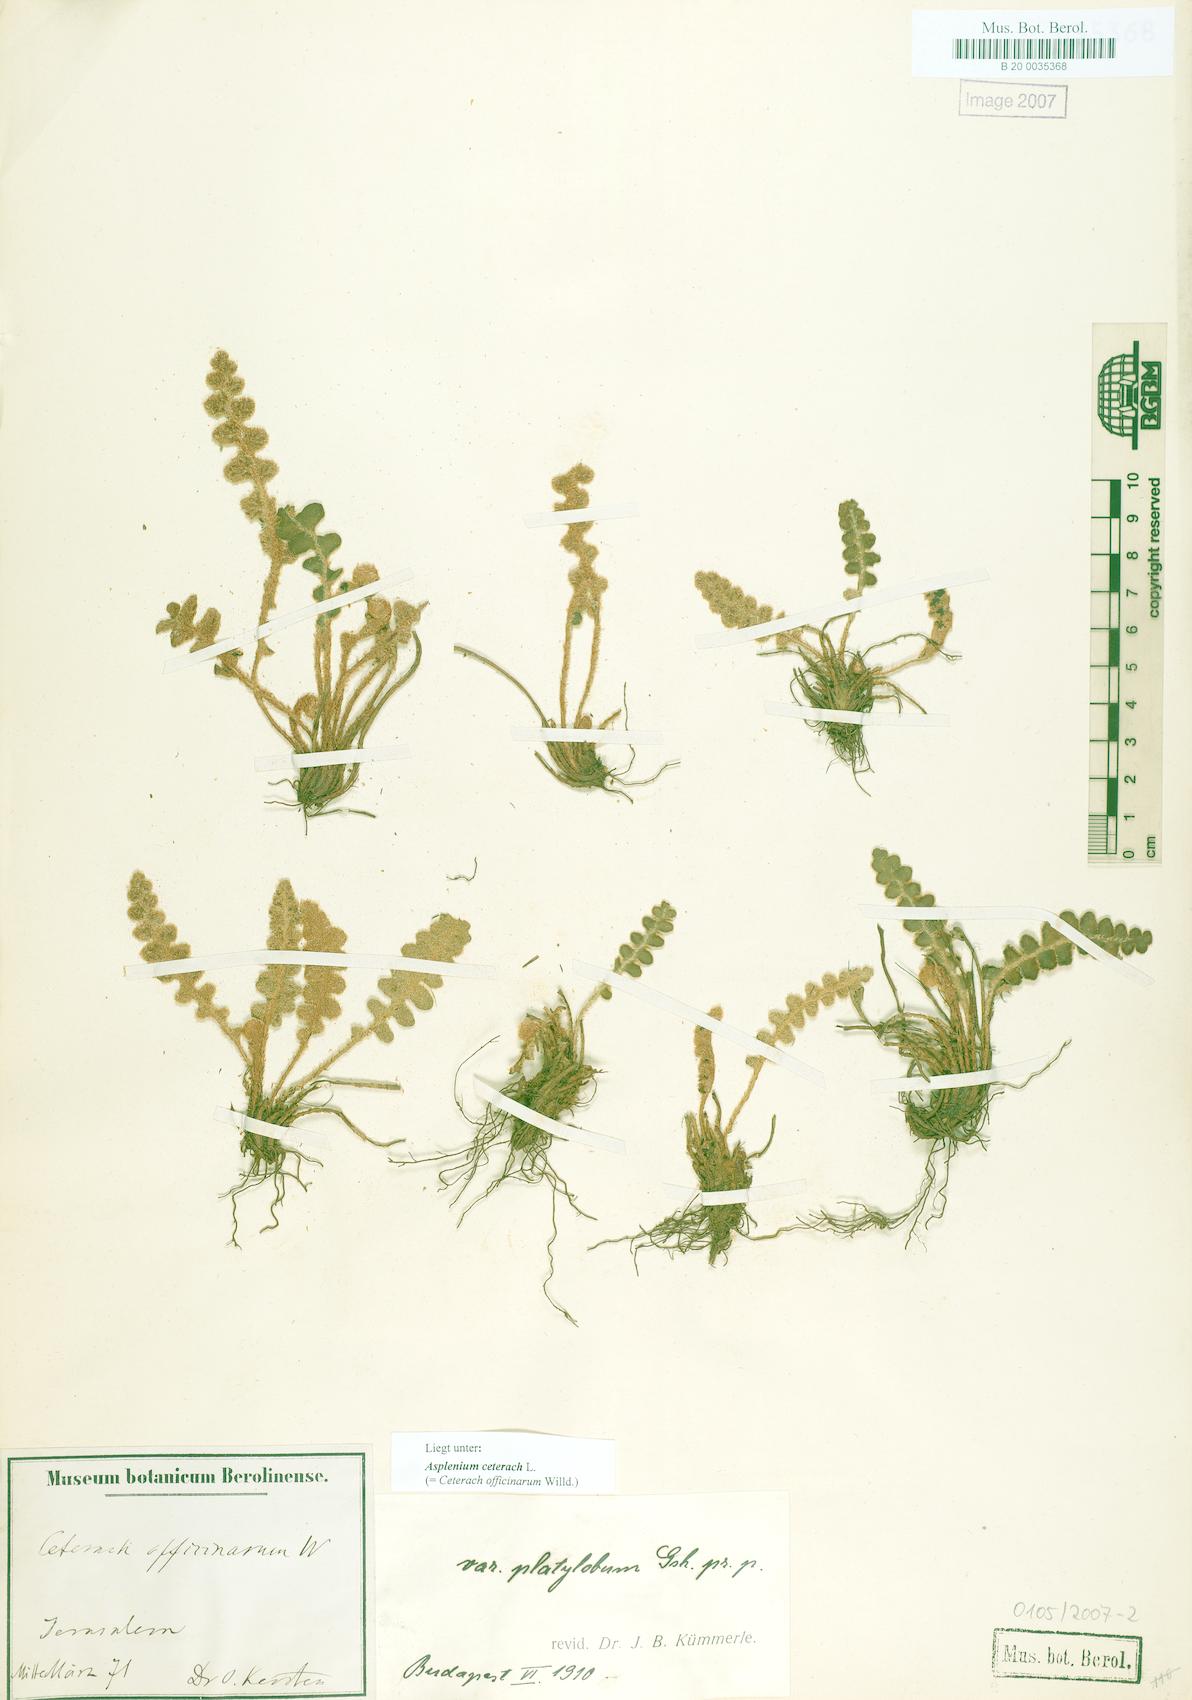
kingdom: Plantae
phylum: Tracheophyta
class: Polypodiopsida
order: Polypodiales
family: Aspleniaceae
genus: Asplenium
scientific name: Asplenium ceterach
